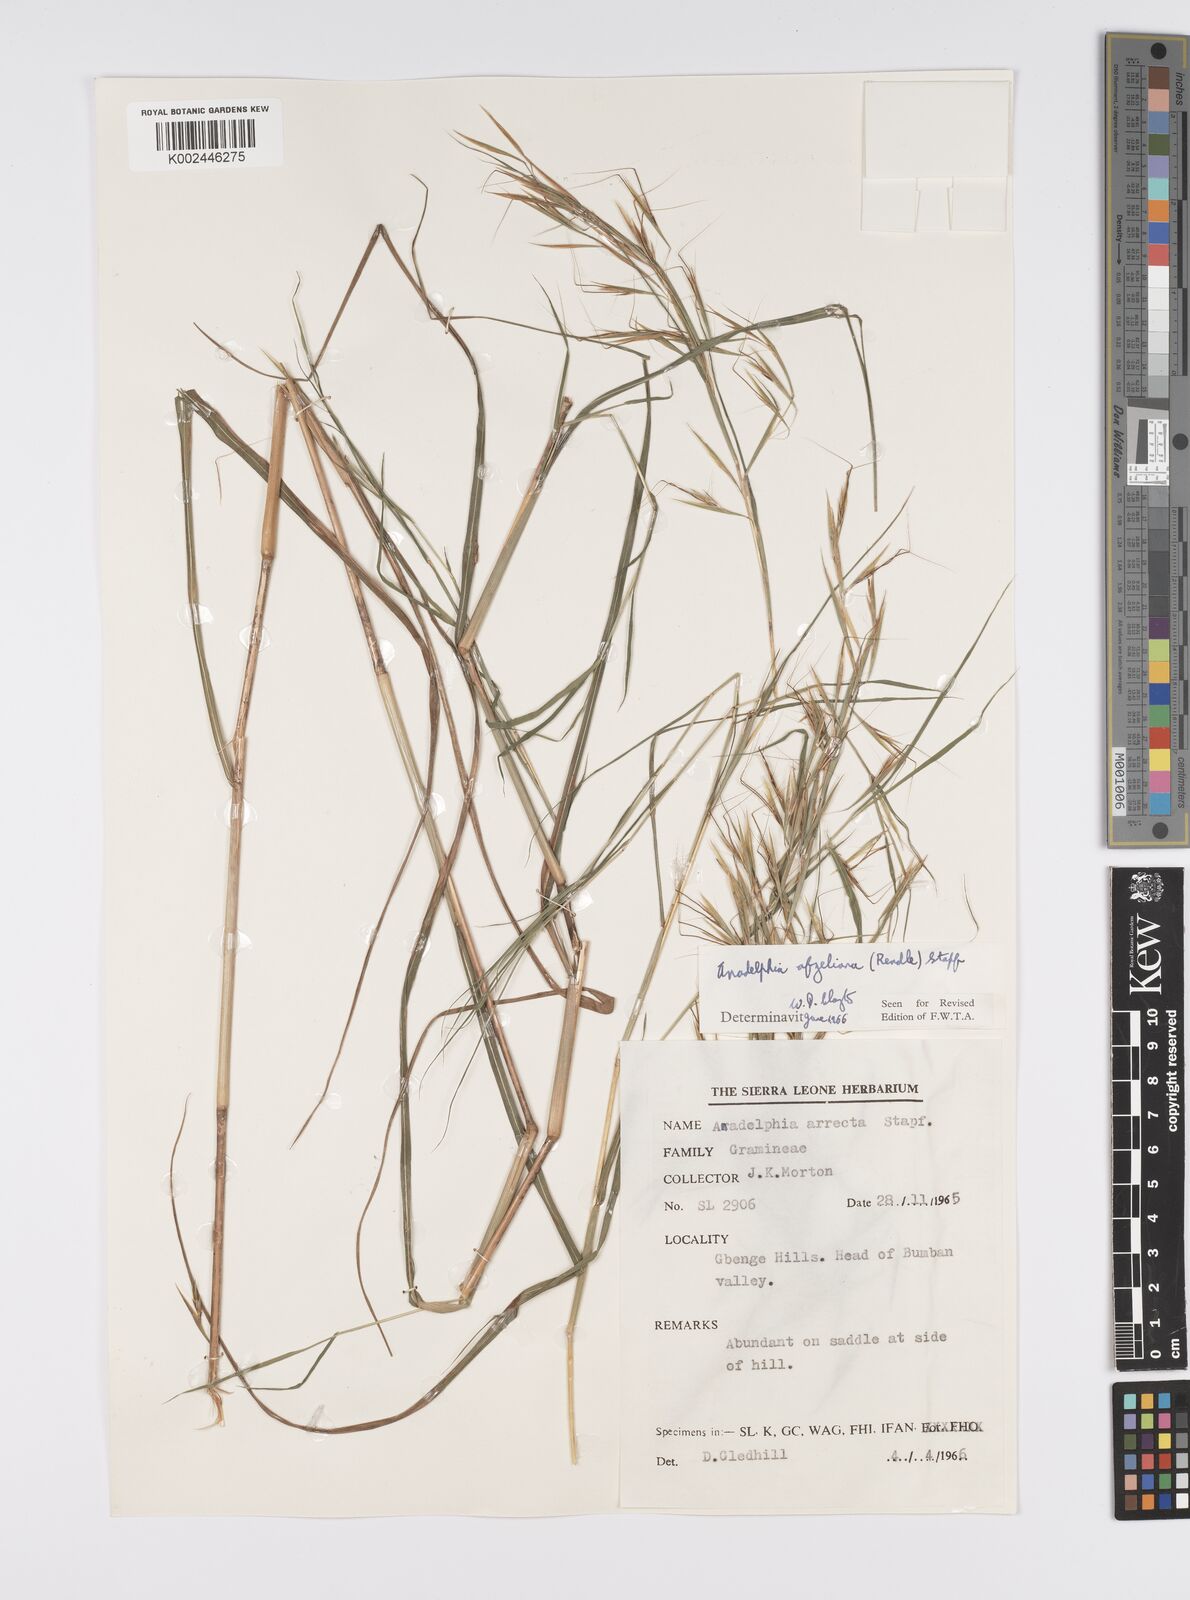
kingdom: Plantae
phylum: Tracheophyta
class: Liliopsida
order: Poales
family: Poaceae
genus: Anadelphia
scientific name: Anadelphia afzeliana
